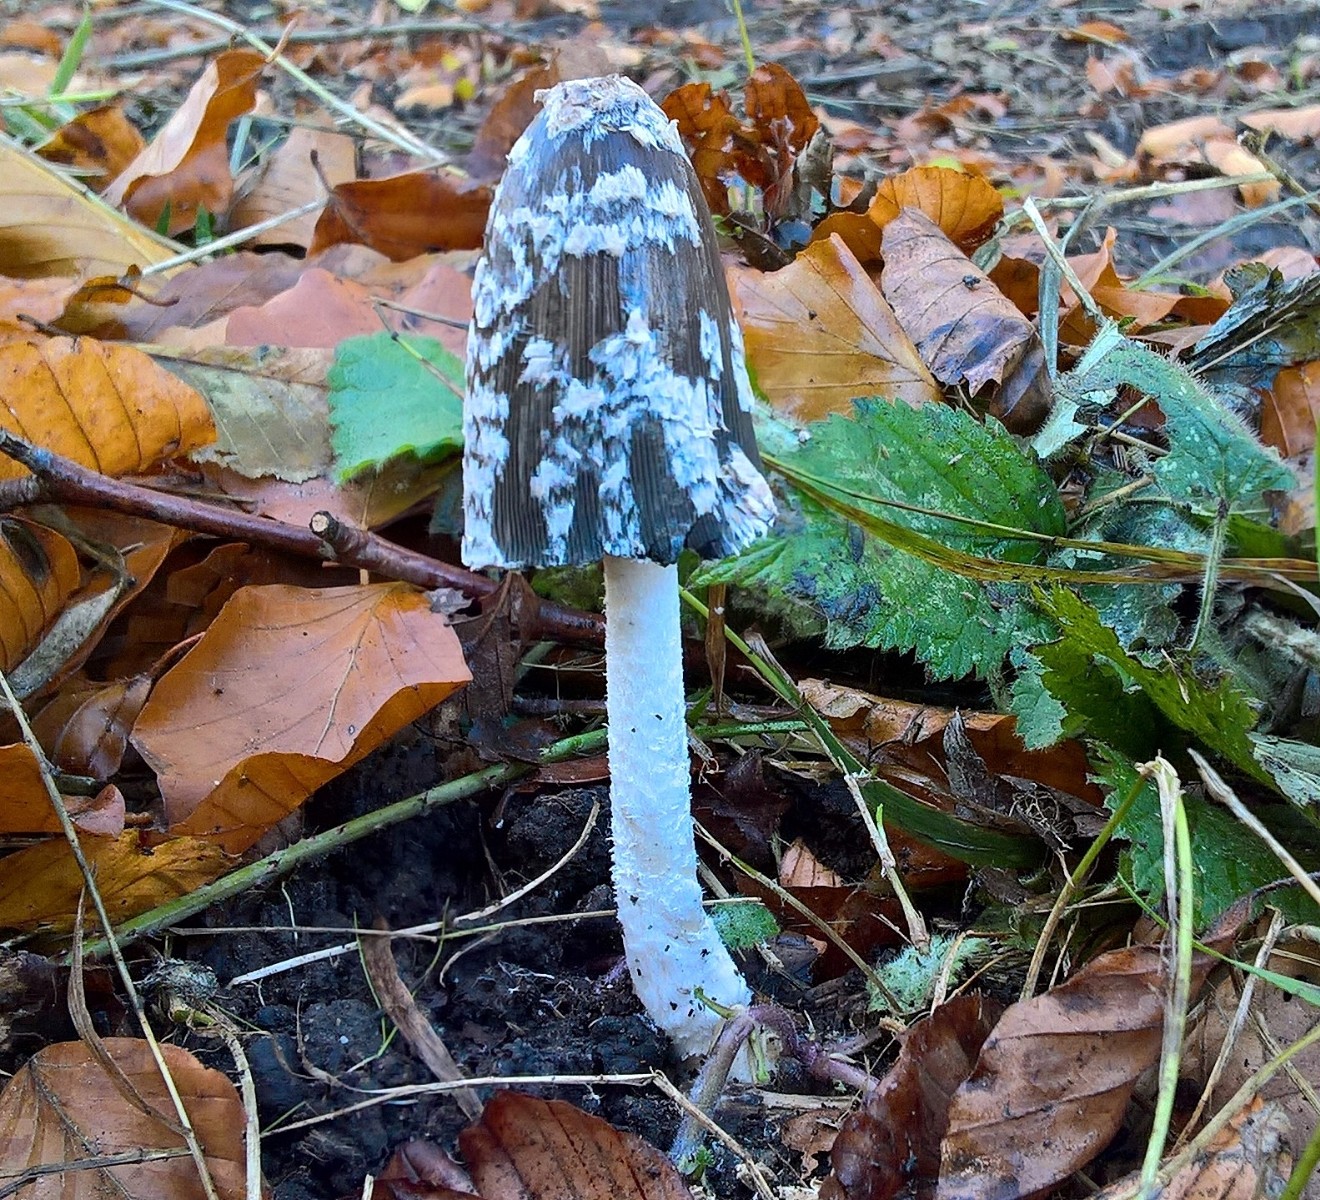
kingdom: Fungi
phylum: Basidiomycota
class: Agaricomycetes
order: Agaricales
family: Psathyrellaceae
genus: Coprinopsis
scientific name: Coprinopsis picacea
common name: skade-blækhat
